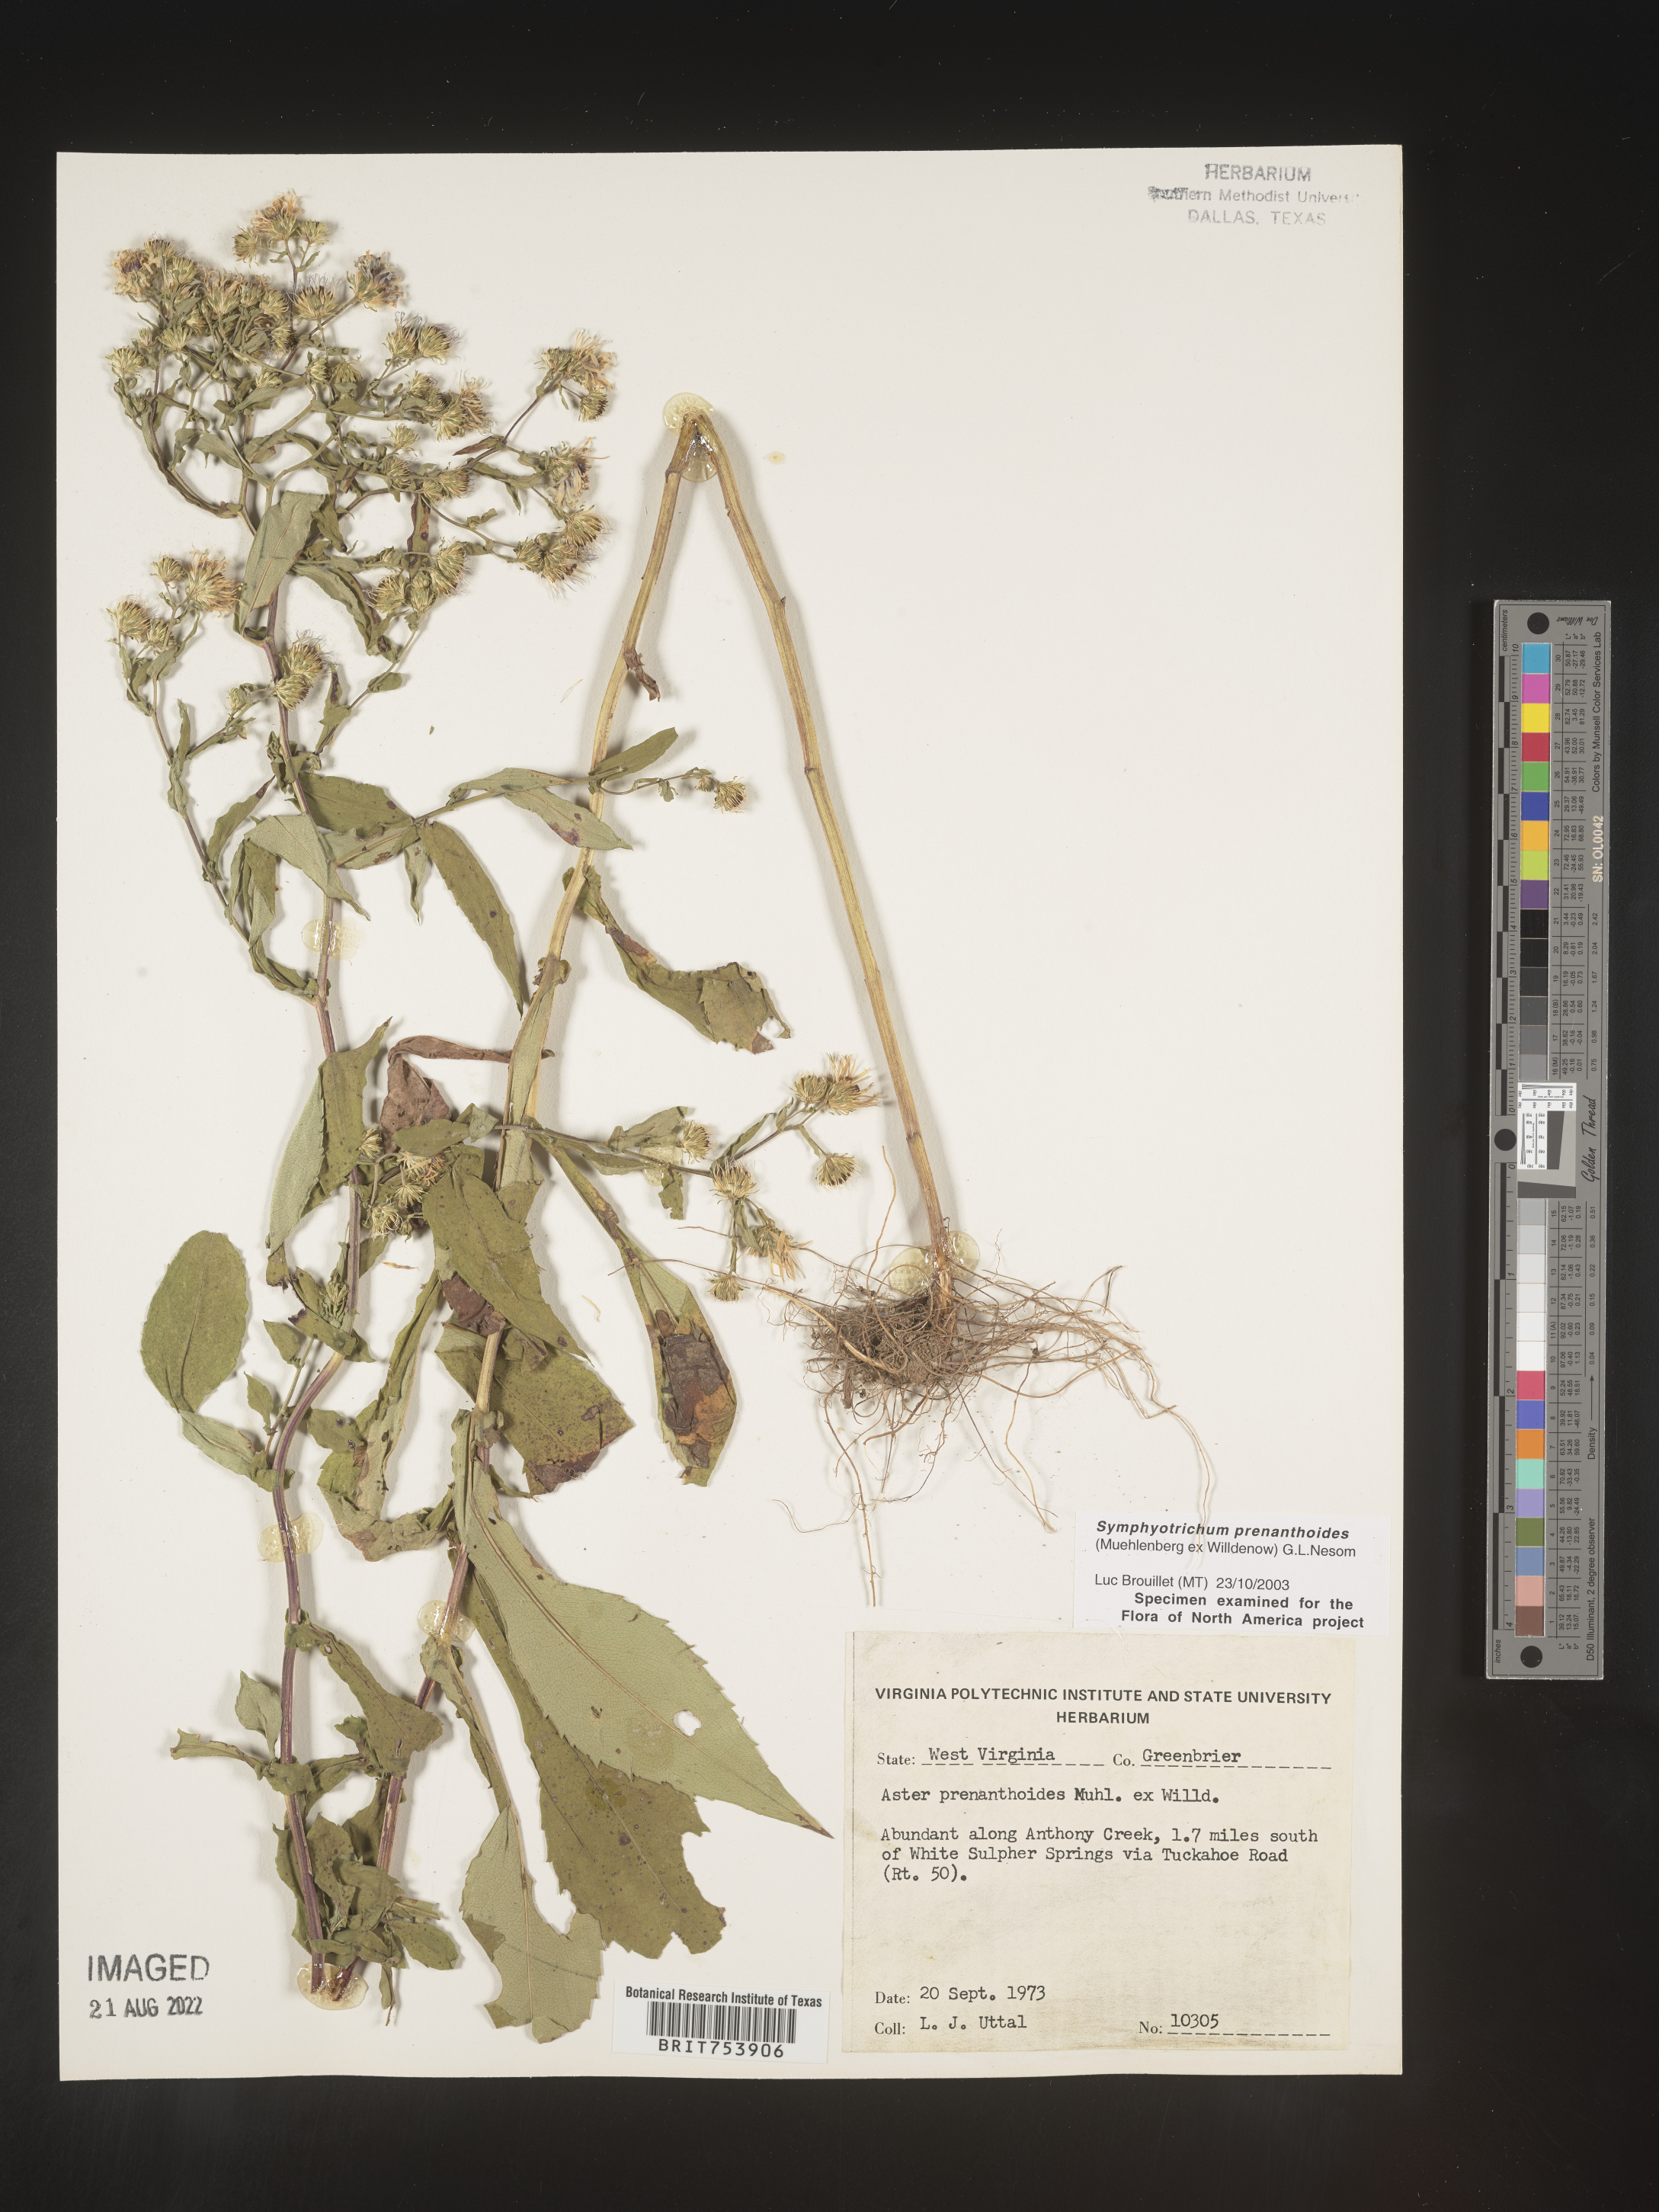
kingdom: Plantae
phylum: Tracheophyta
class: Magnoliopsida
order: Asterales
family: Asteraceae
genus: Symphyotrichum
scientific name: Symphyotrichum prenanthoides
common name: Crooked-stem aster
